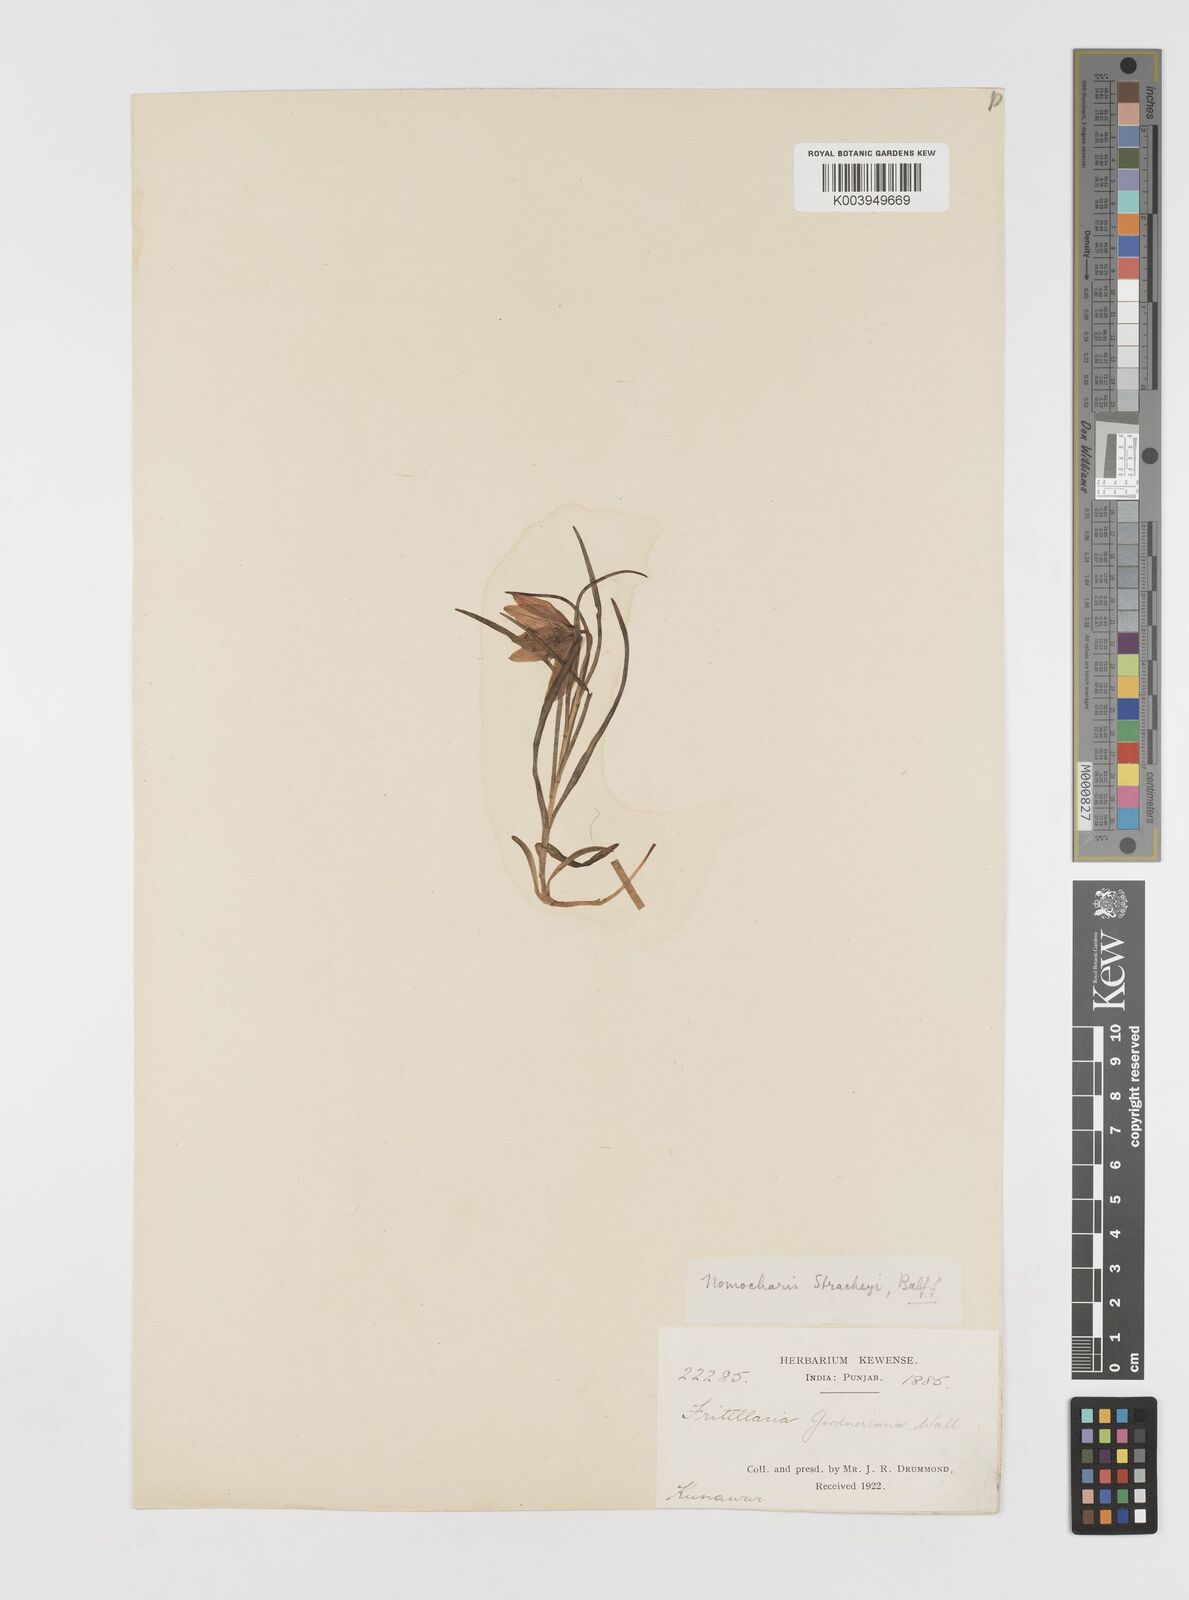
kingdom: Plantae
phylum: Tracheophyta
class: Liliopsida
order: Liliales
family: Liliaceae
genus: Lilium
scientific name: Lilium nanum
